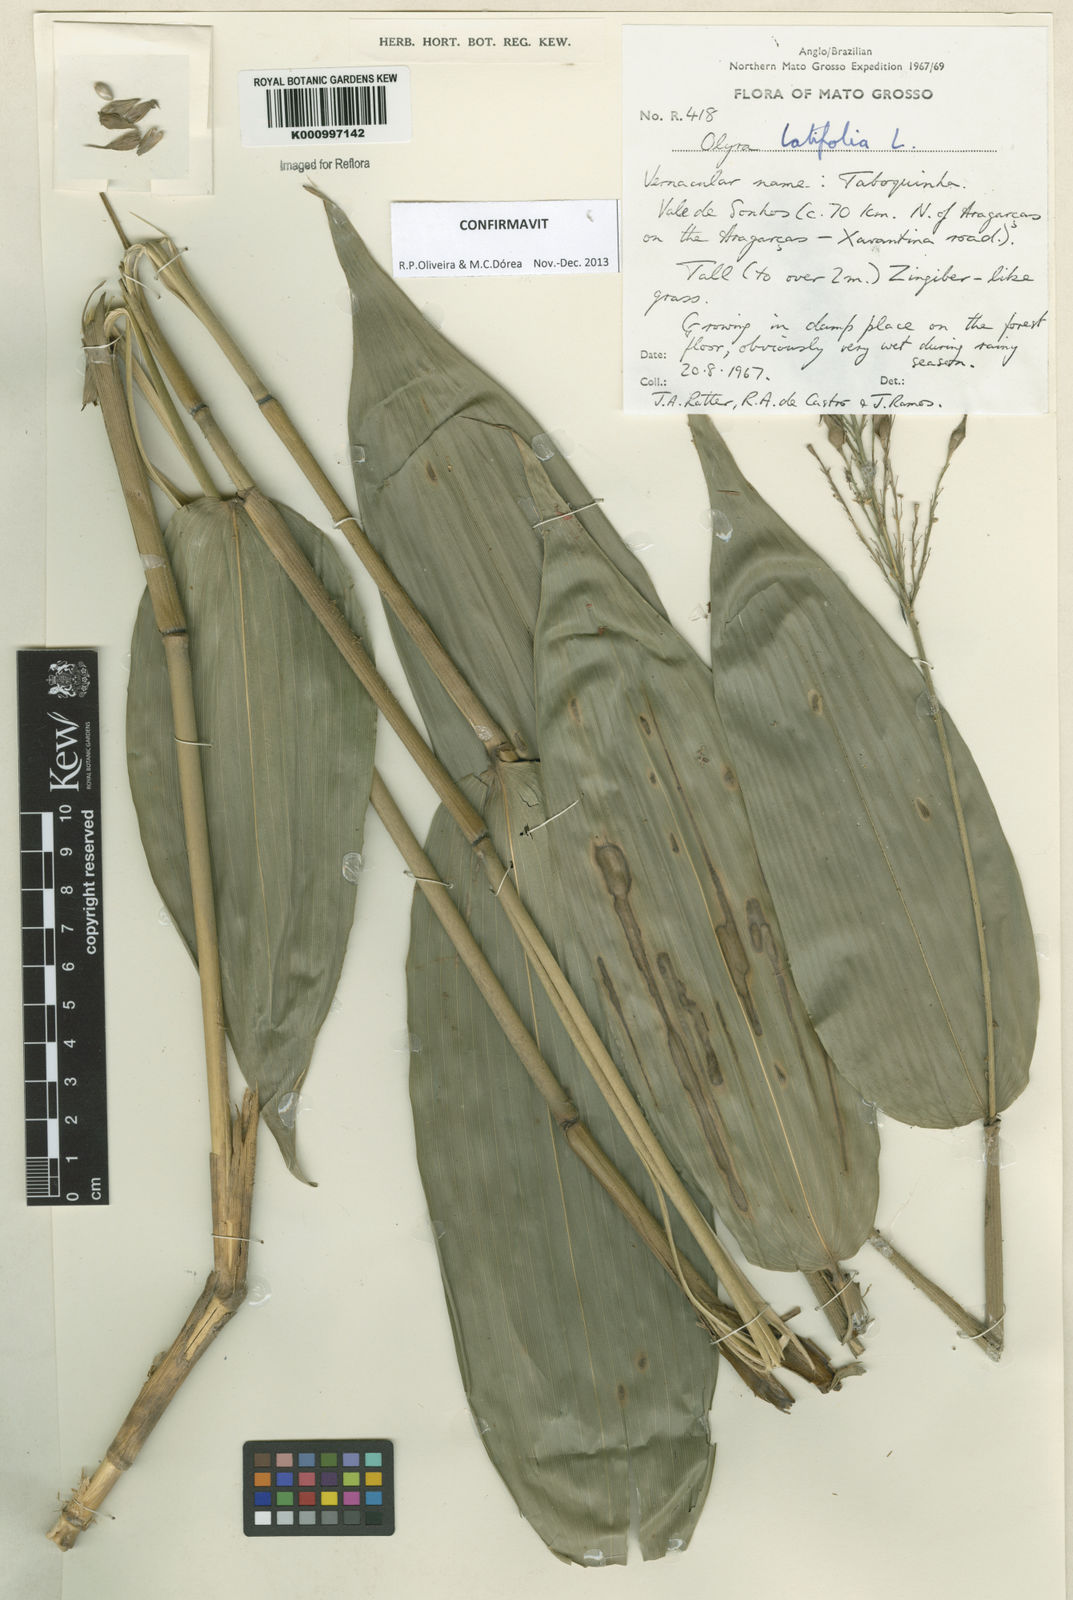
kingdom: Plantae
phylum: Tracheophyta
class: Liliopsida
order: Poales
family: Poaceae
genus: Olyra
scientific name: Olyra latifolia
